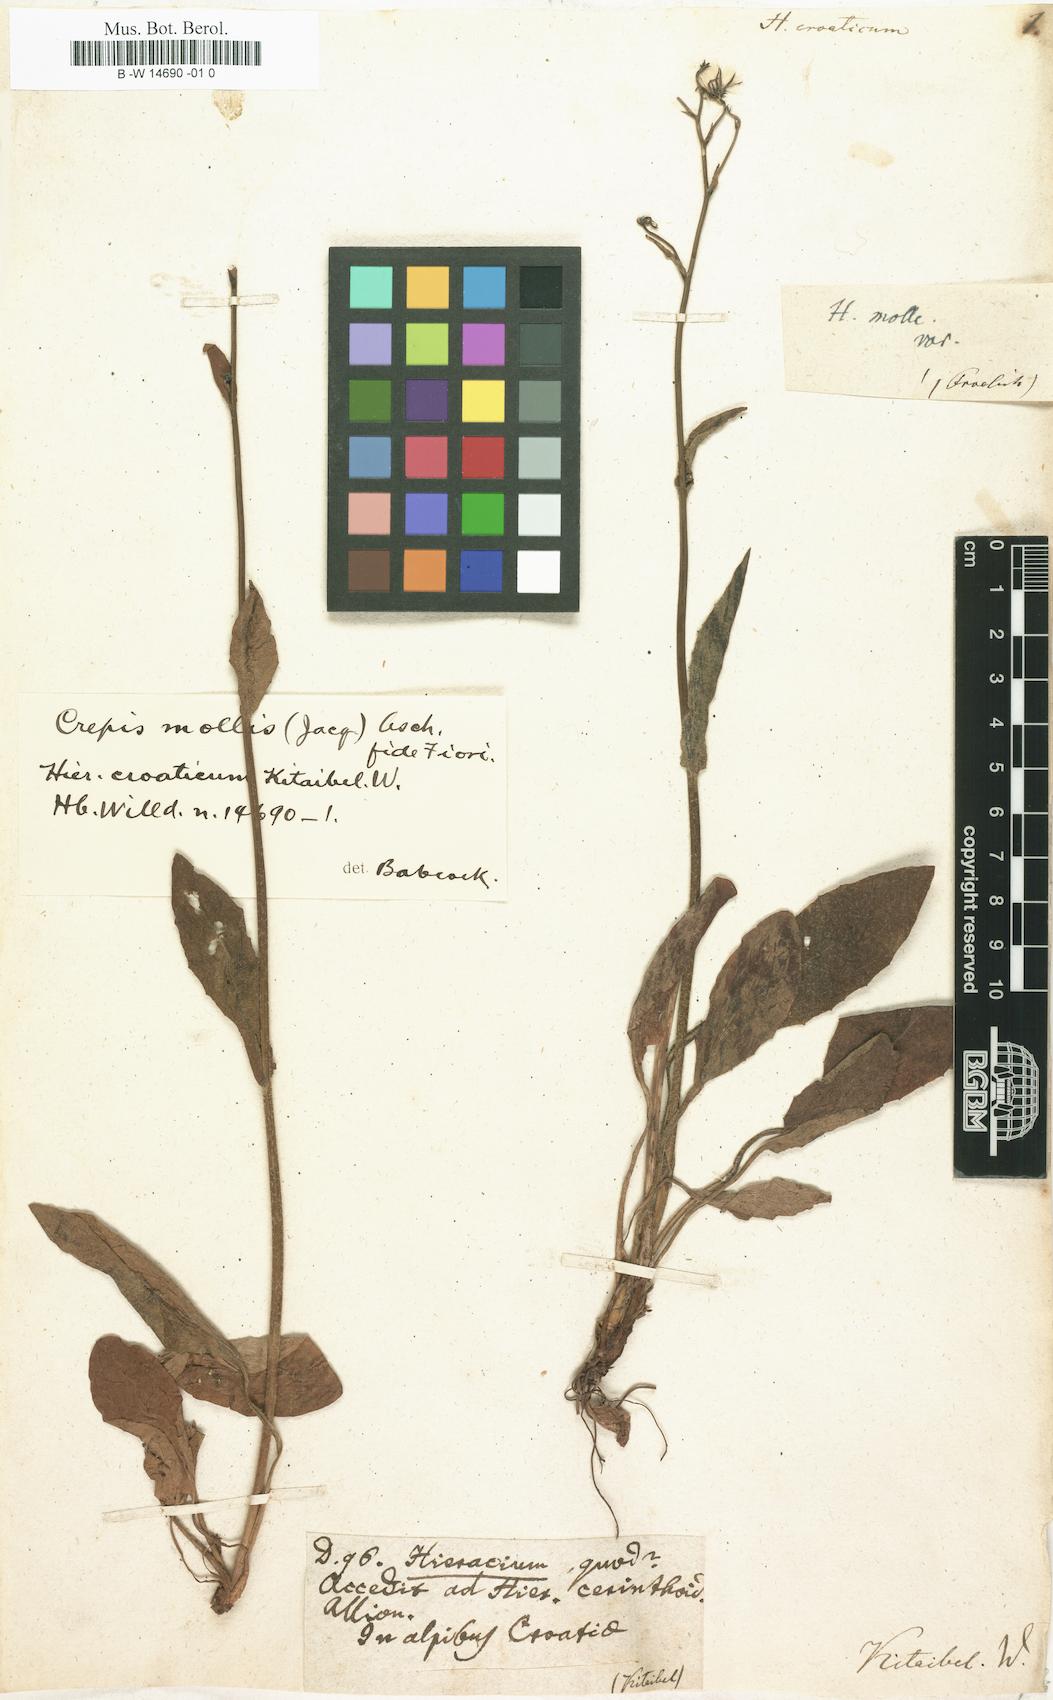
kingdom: Plantae
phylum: Tracheophyta
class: Magnoliopsida
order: Asterales
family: Asteraceae
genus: Hieracium
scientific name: Hieracium croaticum
